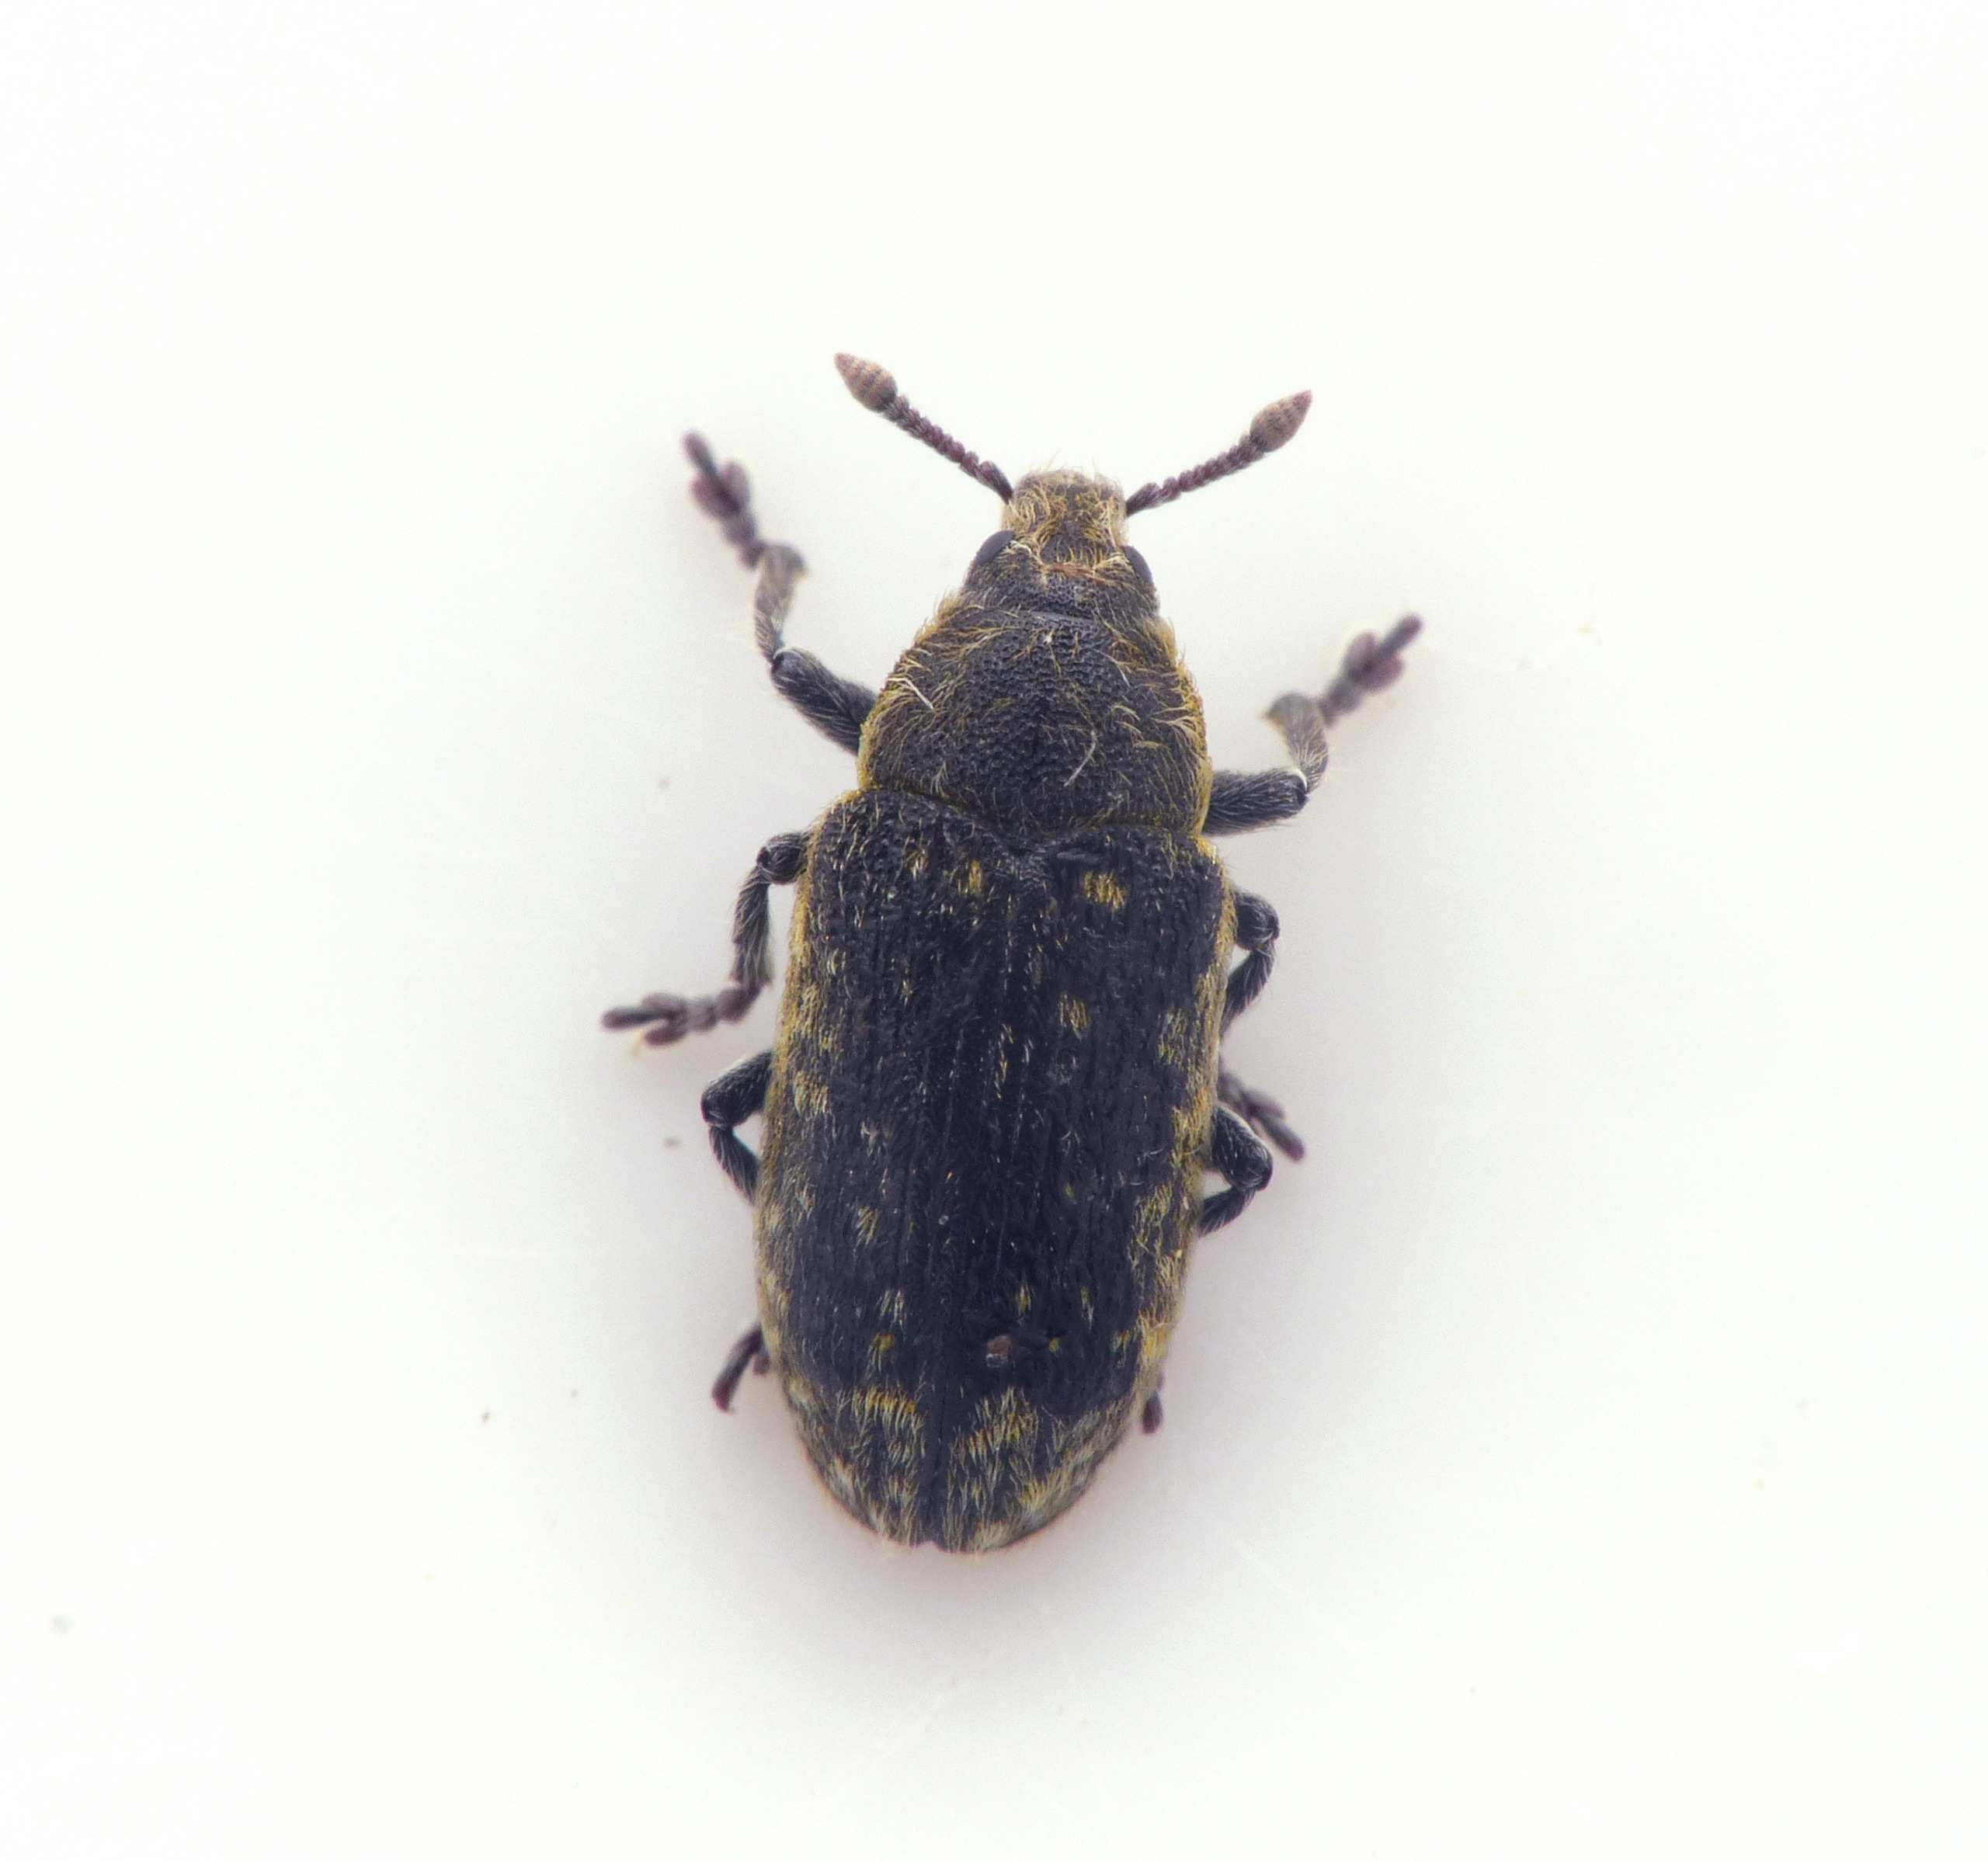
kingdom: Animalia
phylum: Arthropoda
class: Insecta
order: Coleoptera
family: Curculionidae
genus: Rhinocyllus
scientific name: Rhinocyllus conicus
